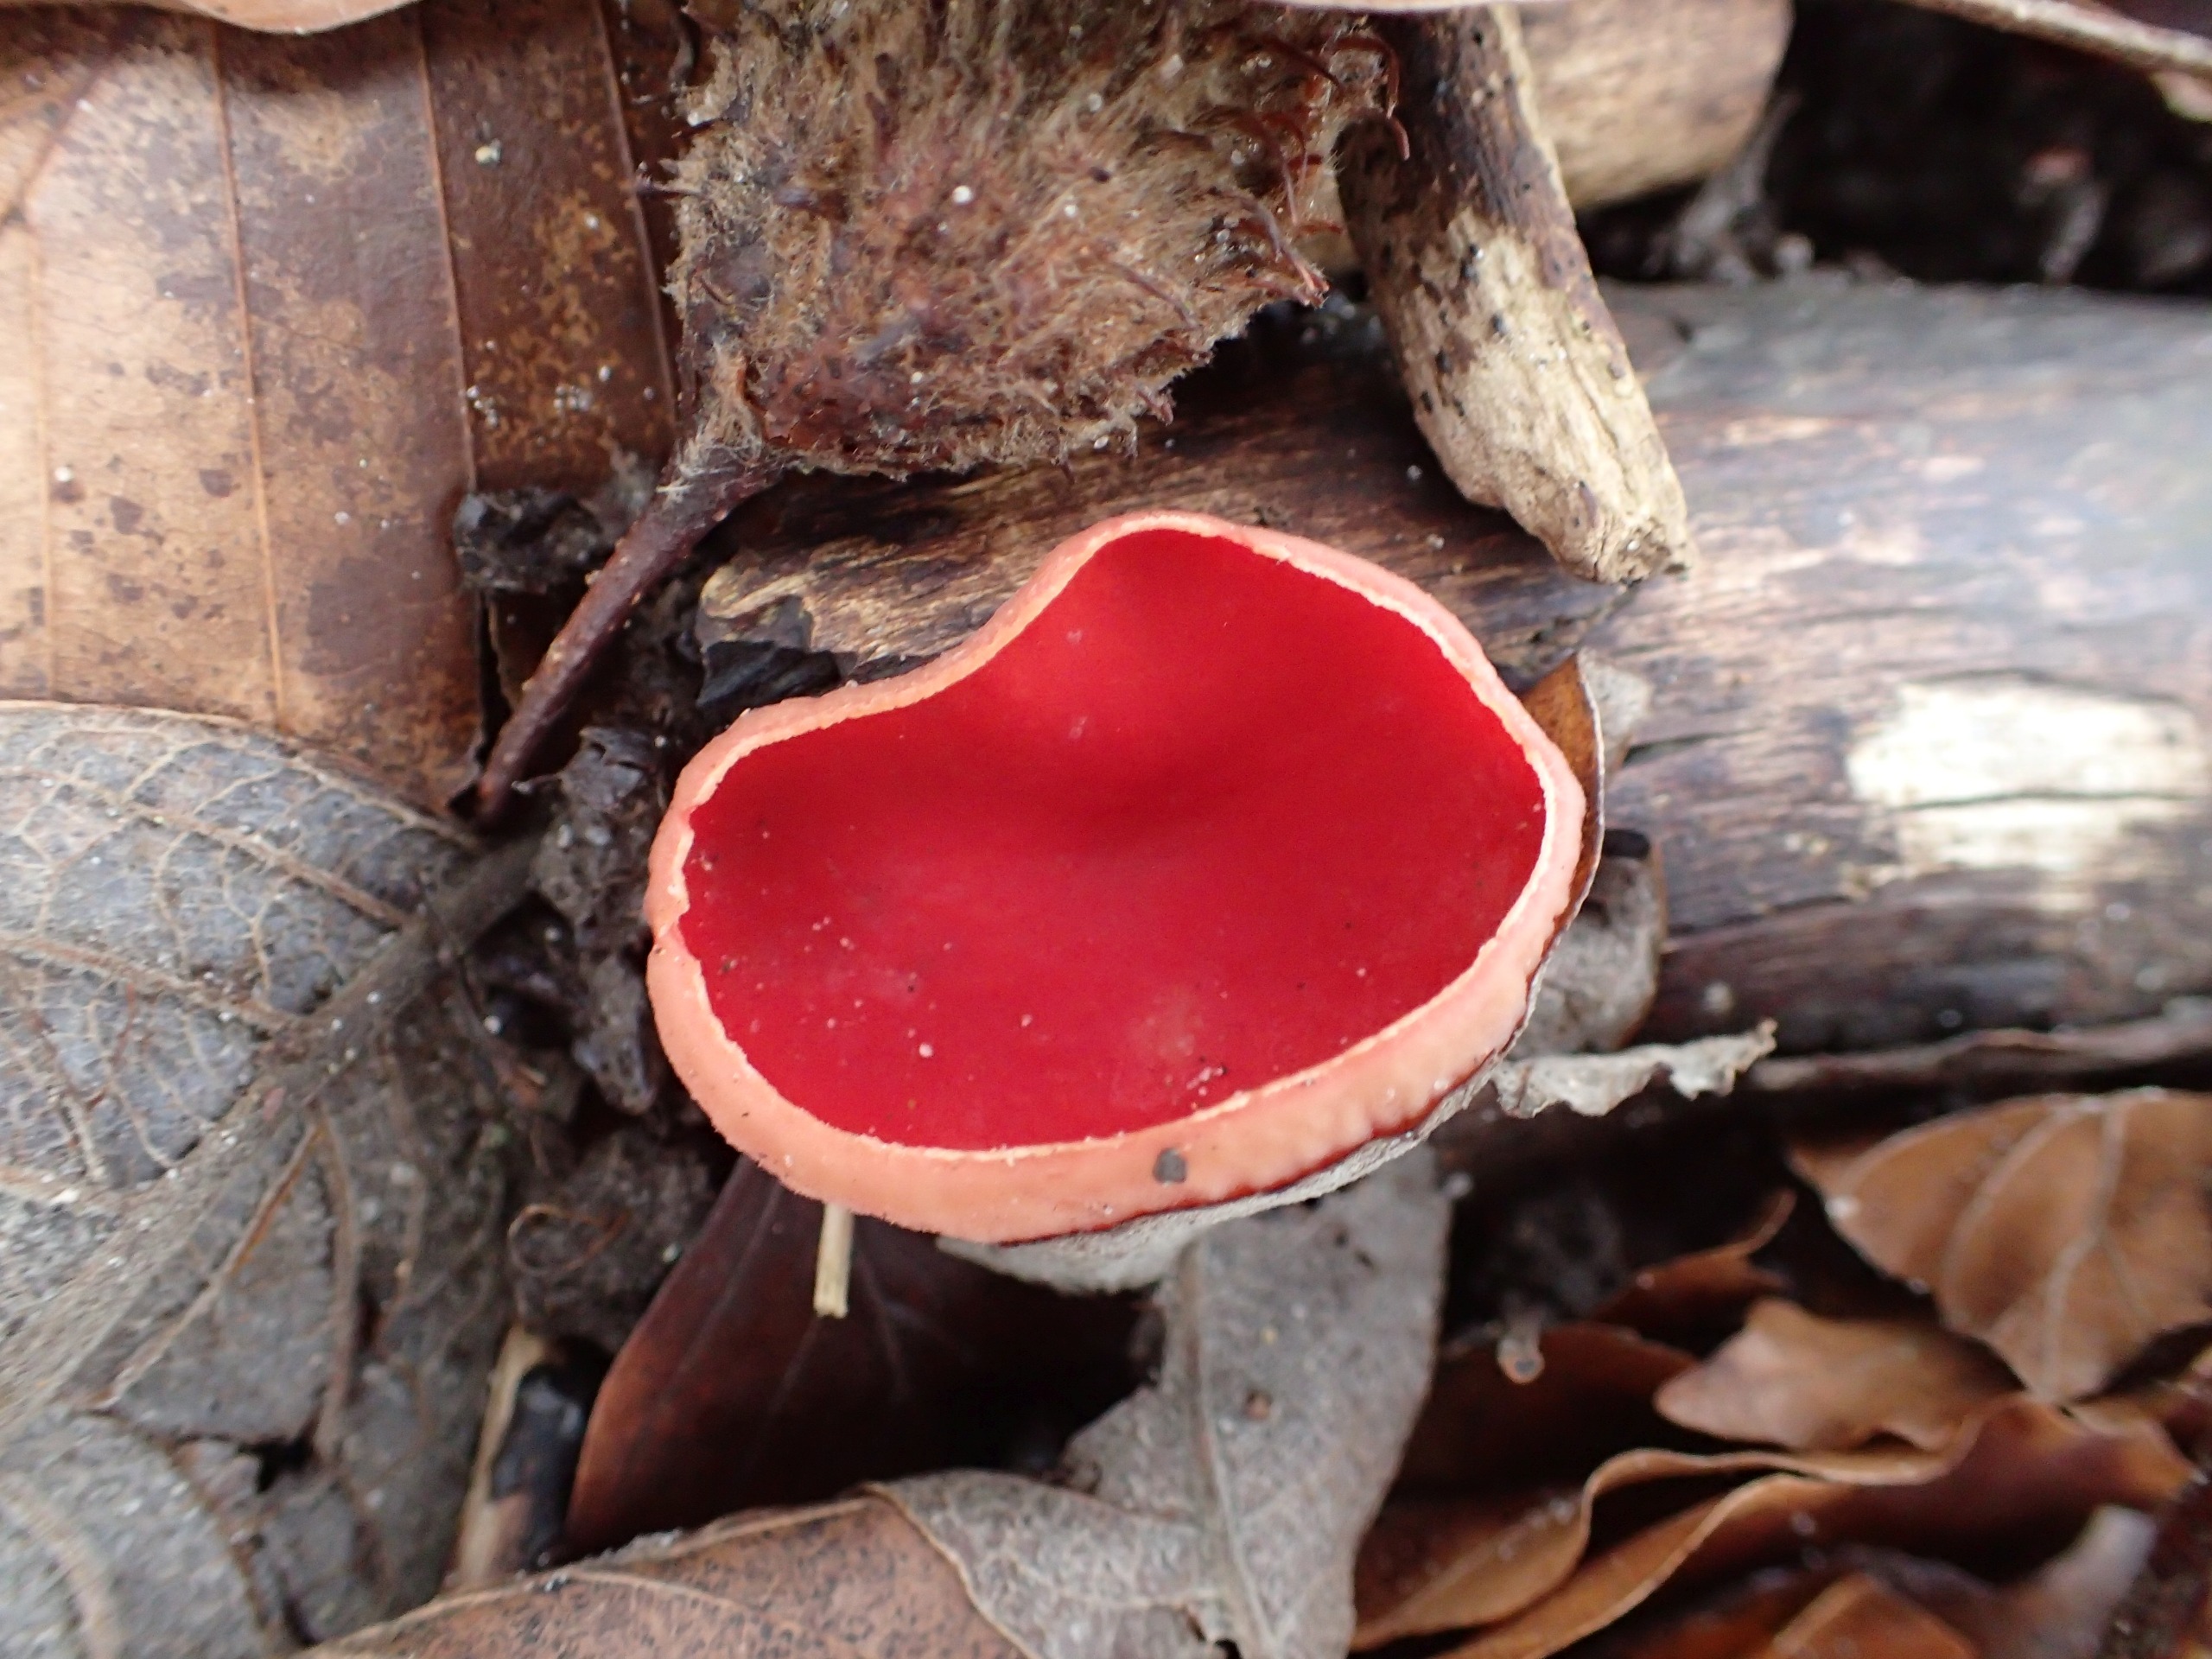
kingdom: Fungi
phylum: Ascomycota
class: Pezizomycetes
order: Pezizales
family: Sarcoscyphaceae
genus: Sarcoscypha
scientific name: Sarcoscypha austriaca
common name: Krølhåret pragtbæger
